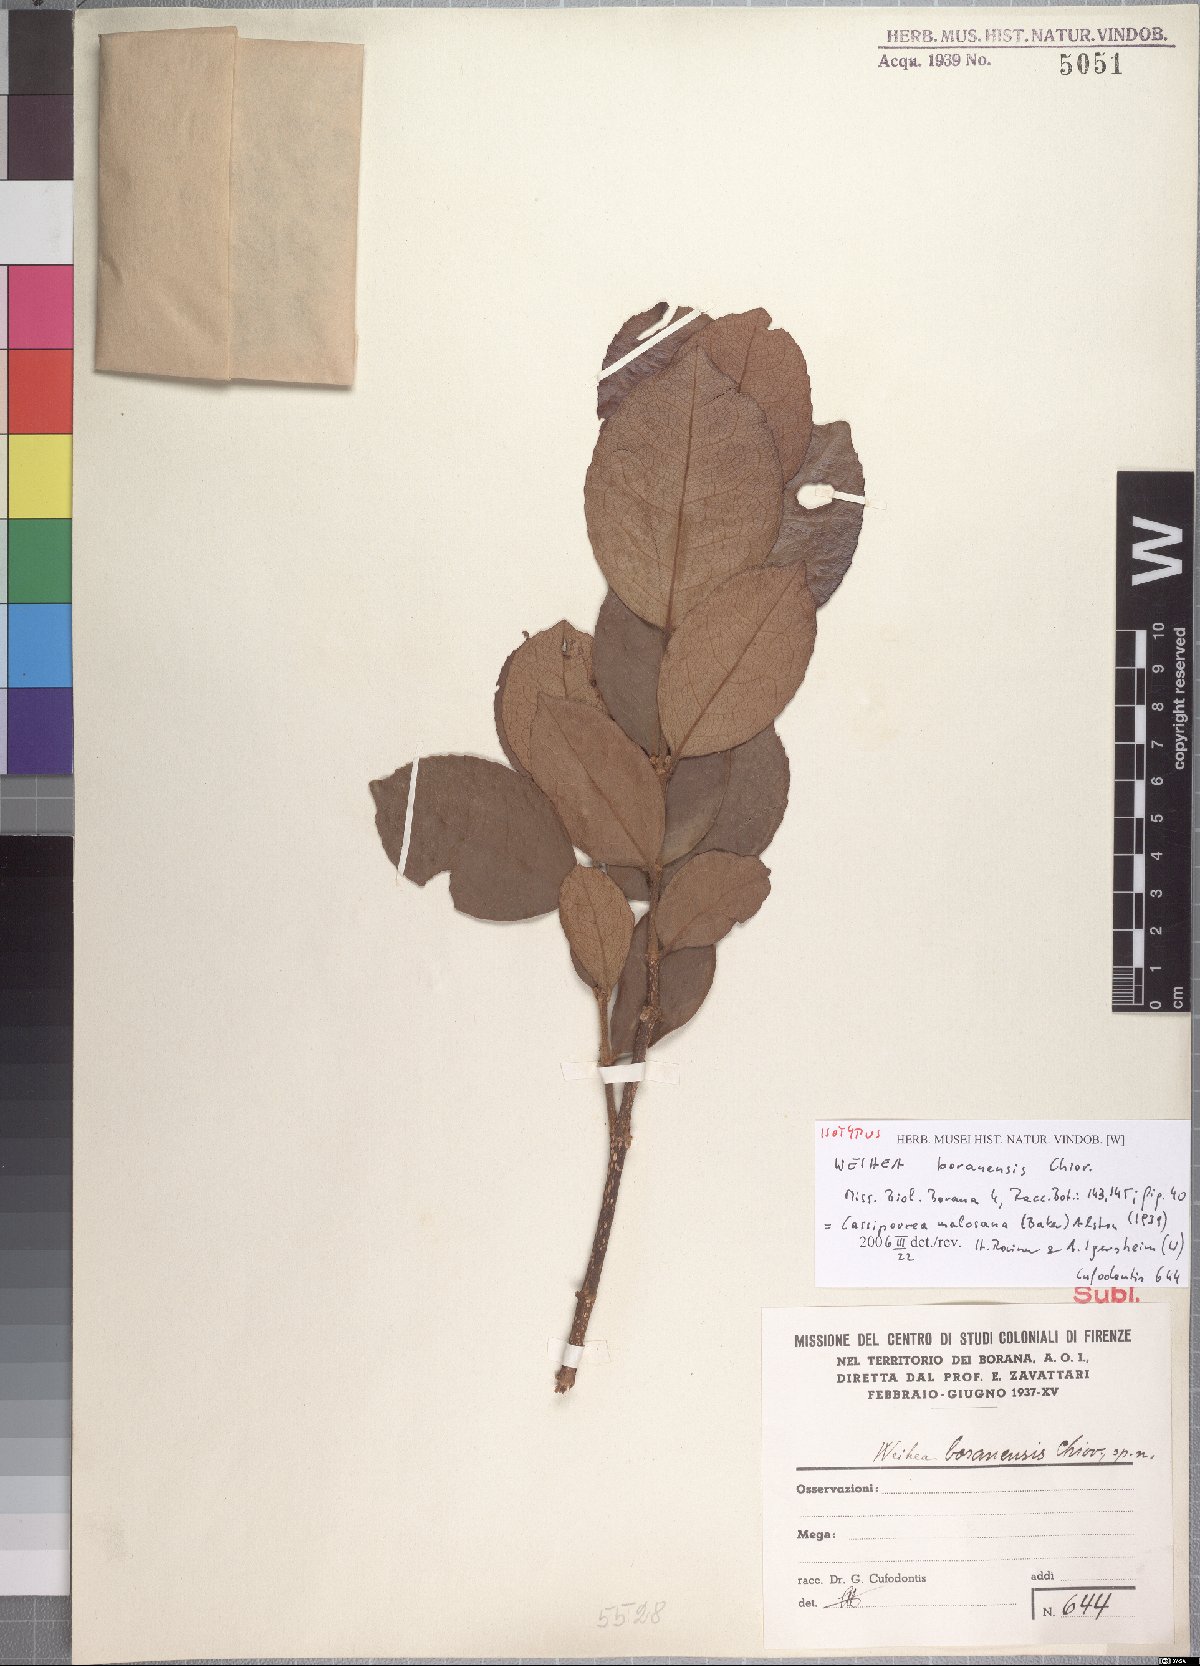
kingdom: Plantae
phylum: Tracheophyta
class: Magnoliopsida
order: Malpighiales
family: Rhizophoraceae
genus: Cassipourea
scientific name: Cassipourea malosana
